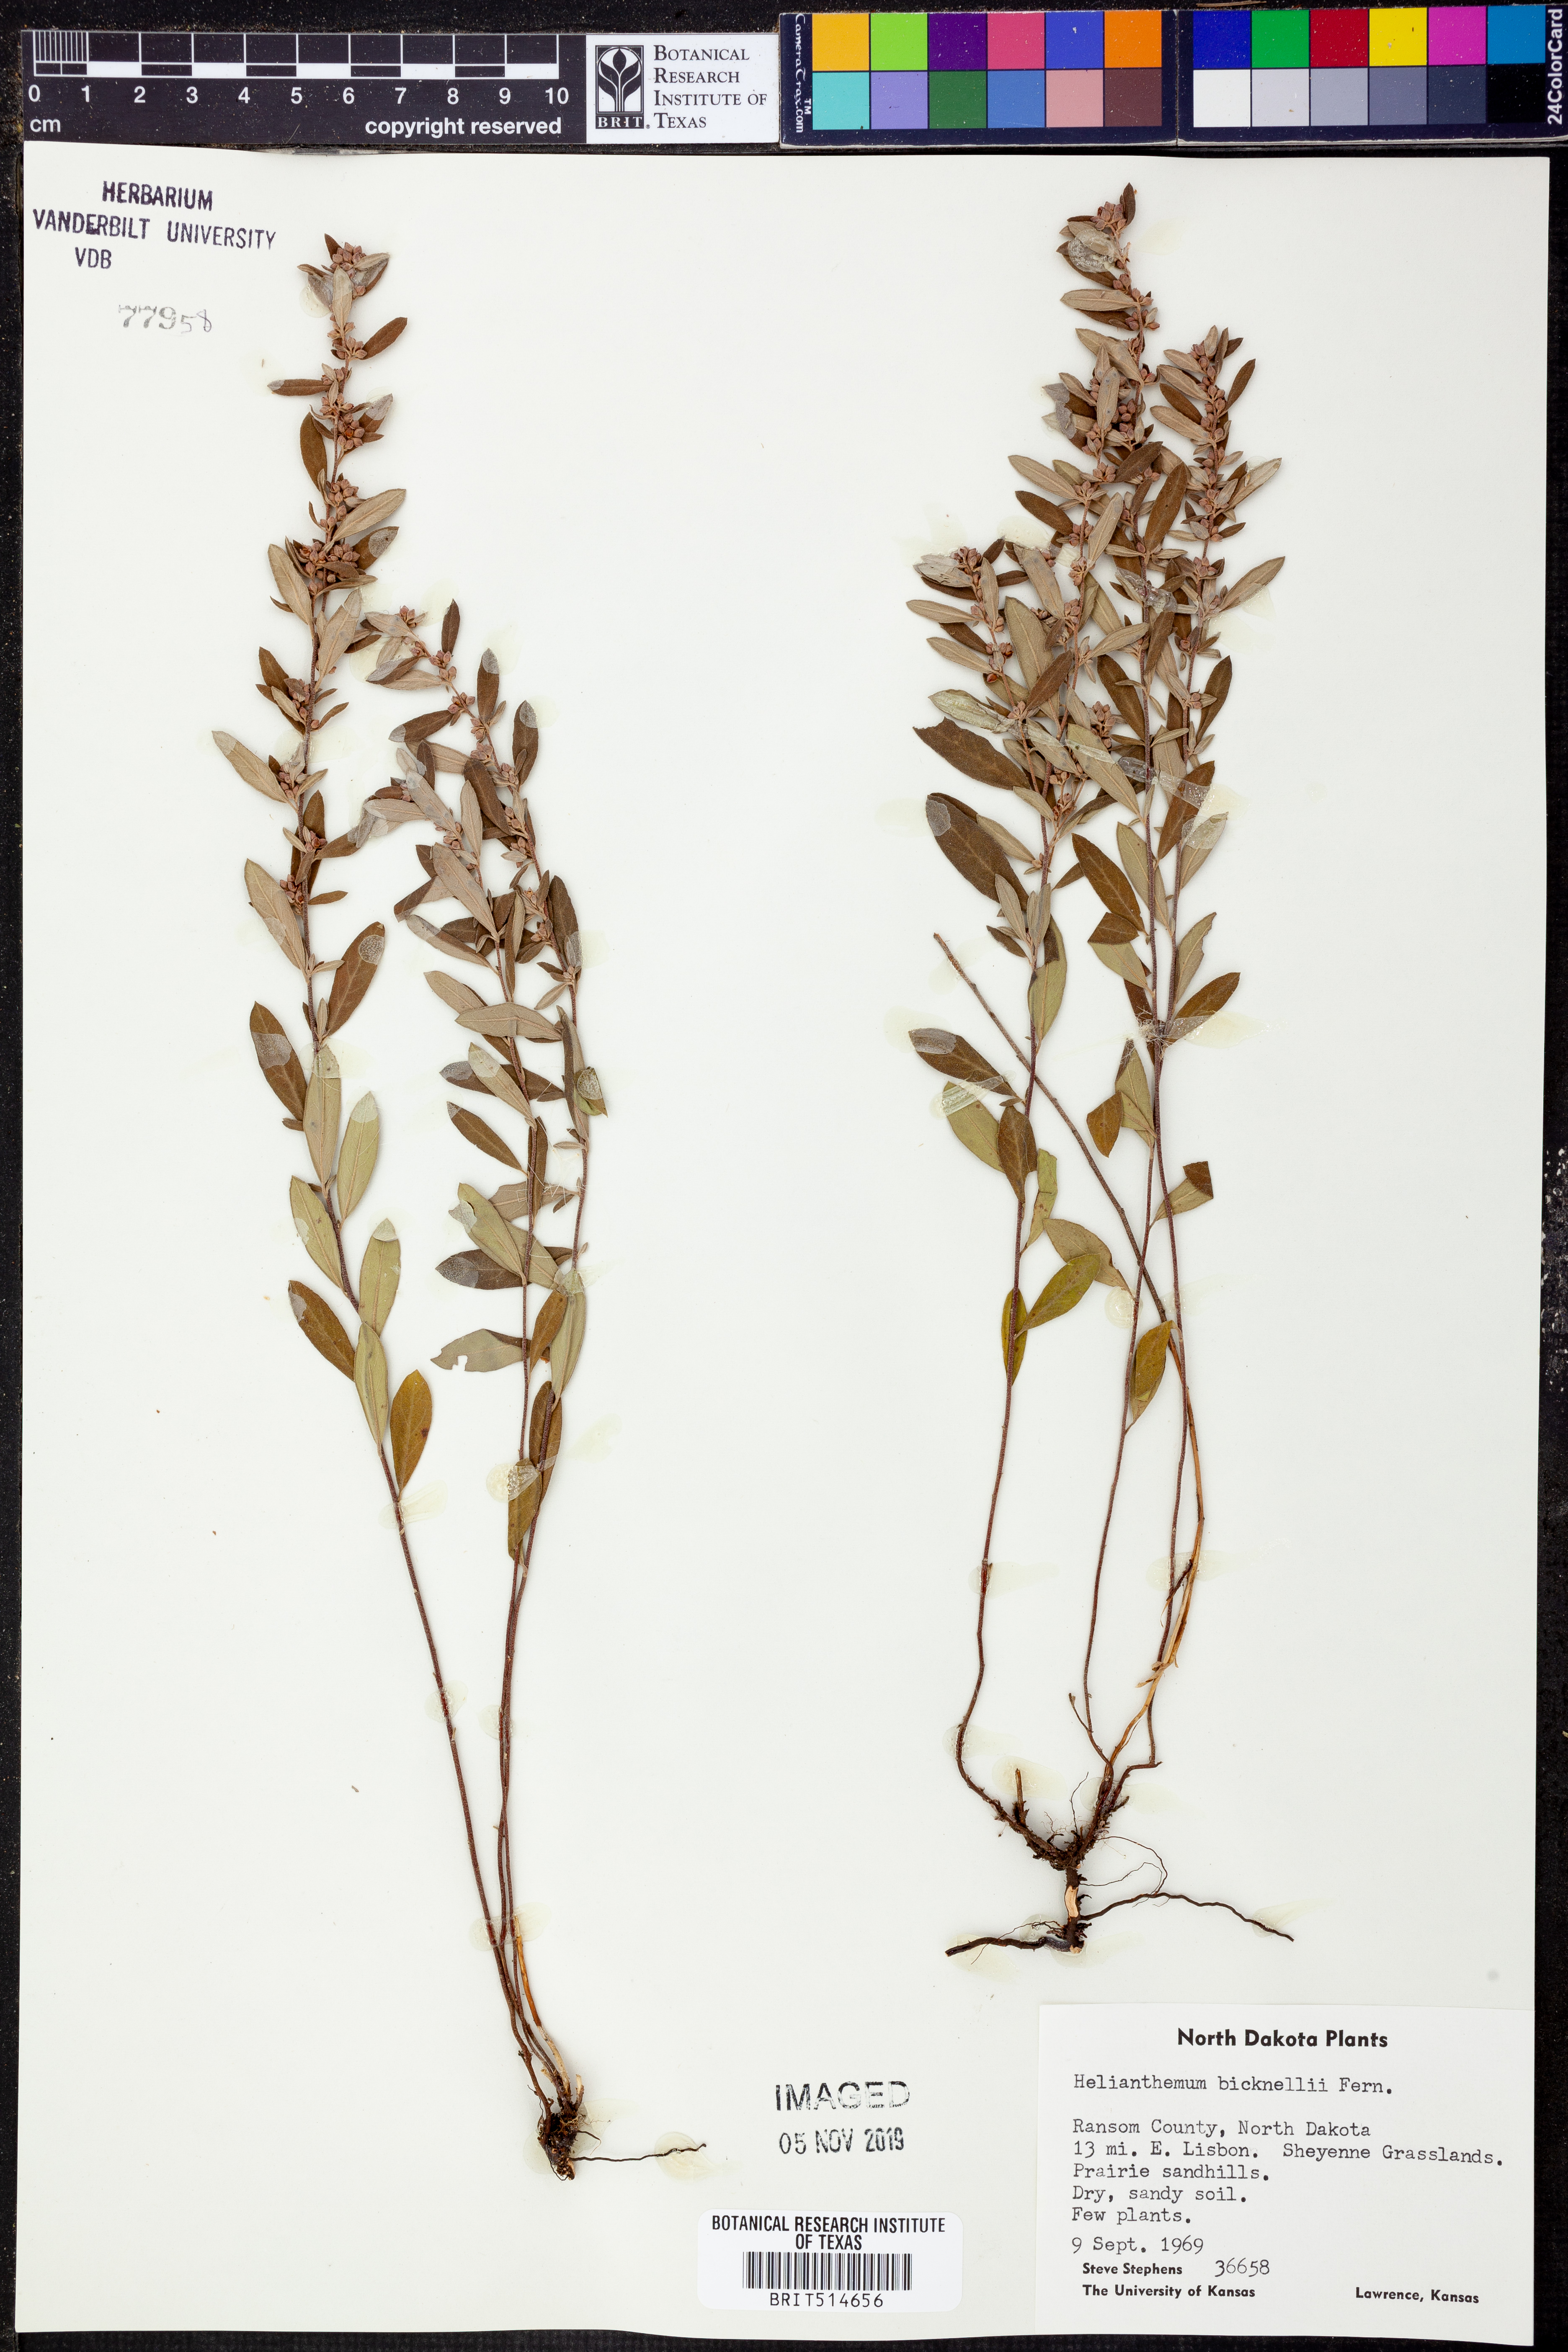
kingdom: Plantae
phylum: Tracheophyta
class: Magnoliopsida
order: Malvales
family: Cistaceae
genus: Crocanthemum
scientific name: Crocanthemum bicknellii
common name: Hoary frostweed
